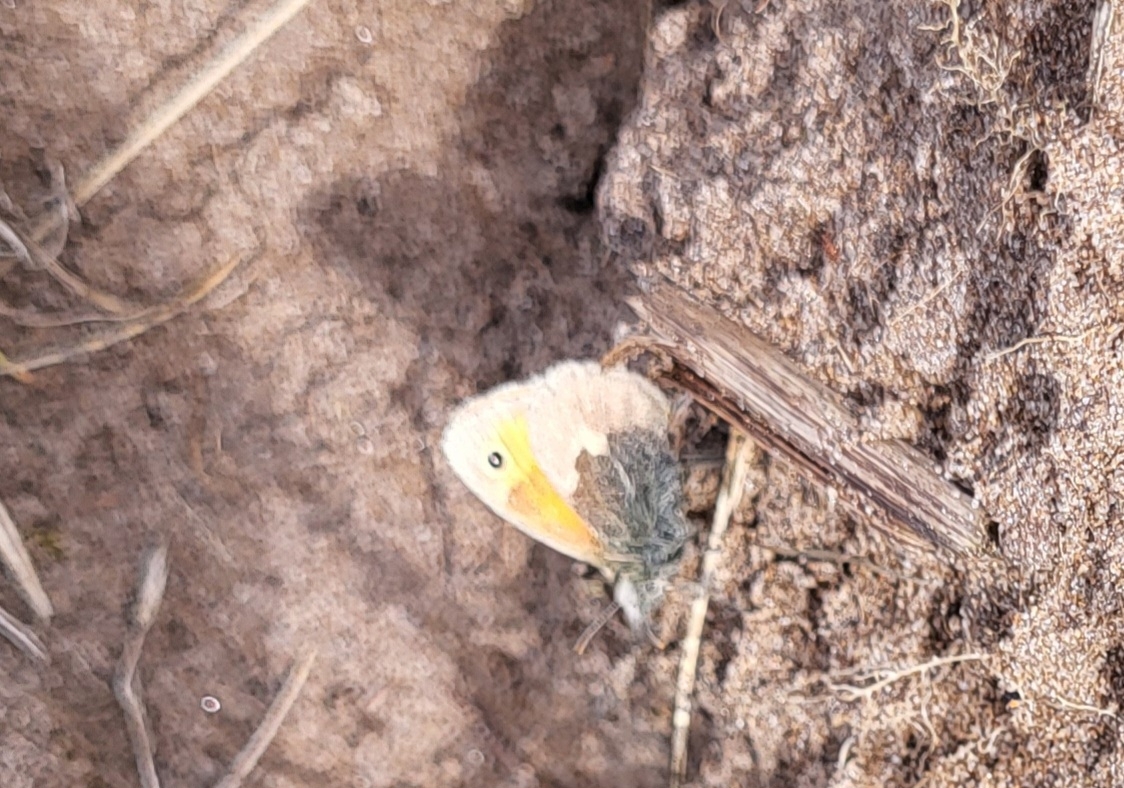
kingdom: Animalia
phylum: Arthropoda
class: Insecta
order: Lepidoptera
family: Nymphalidae
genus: Coenonympha
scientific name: Coenonympha pamphilus
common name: Okkergul randøje
